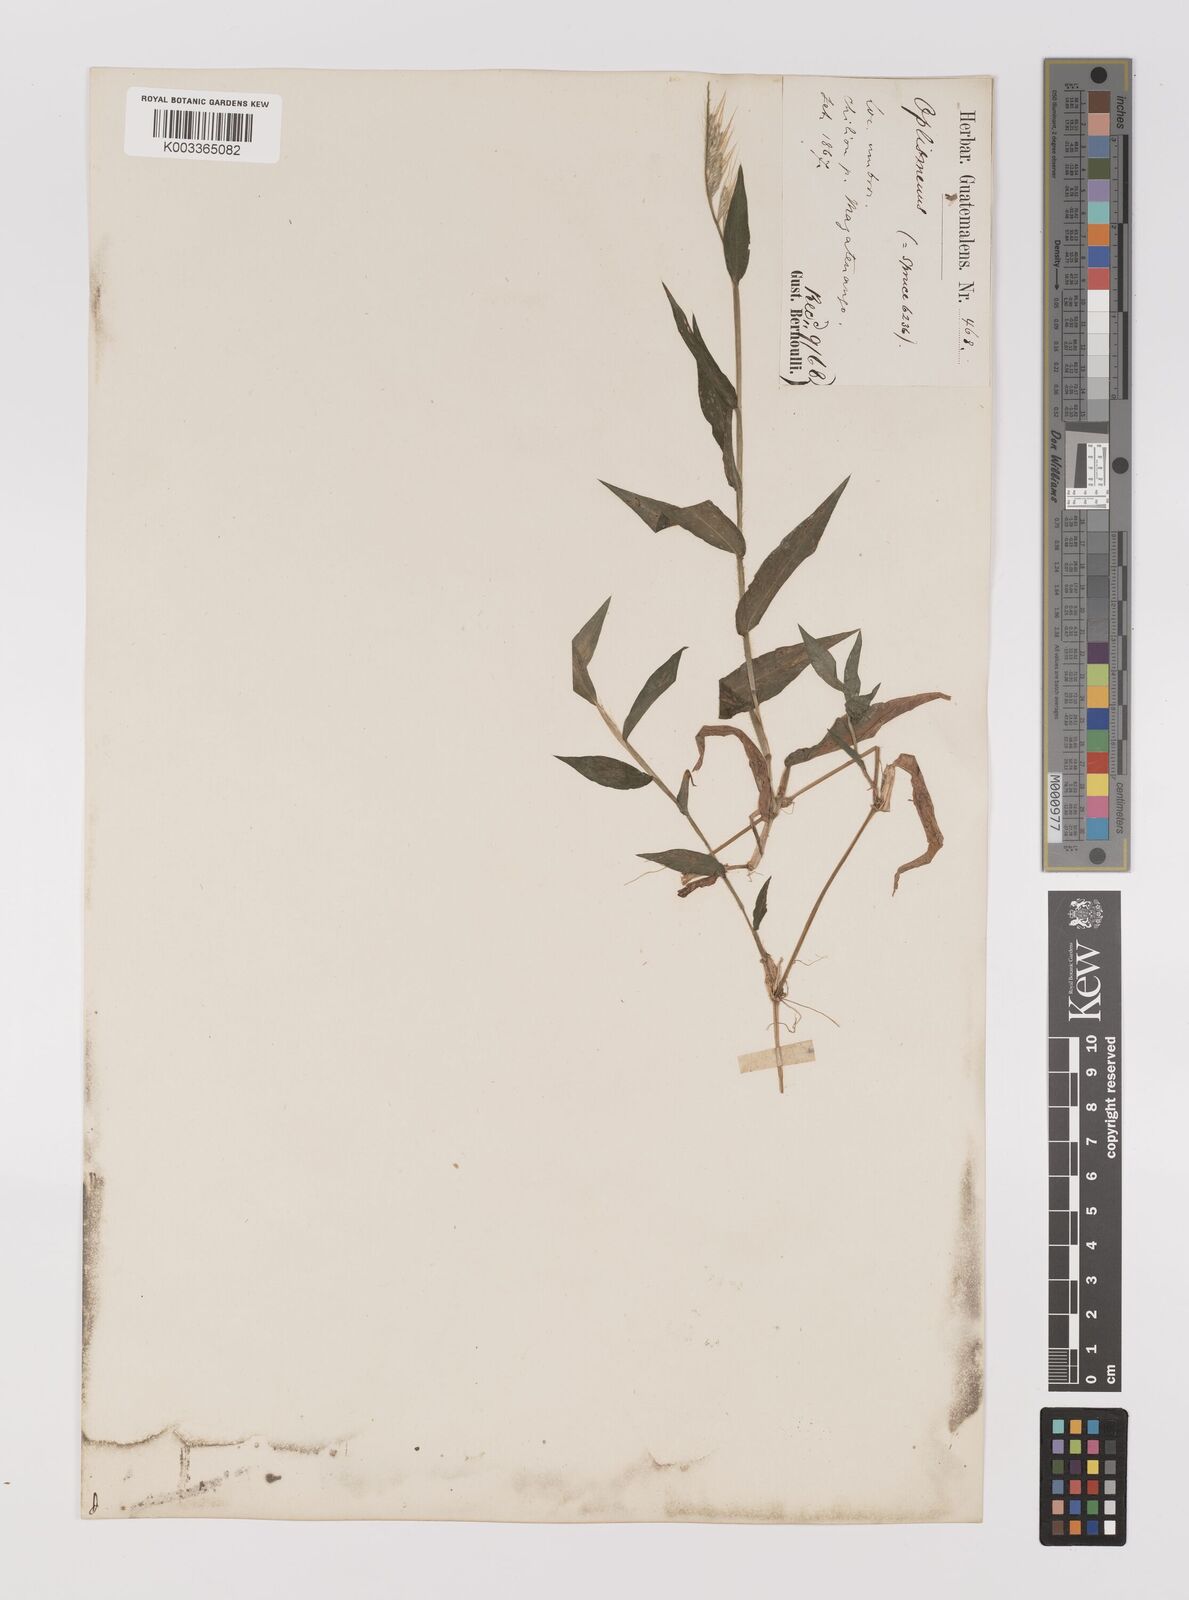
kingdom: Plantae
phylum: Tracheophyta
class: Liliopsida
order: Poales
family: Poaceae
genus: Oplismenus
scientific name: Oplismenus burmanni
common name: Burmann's basketgrass
